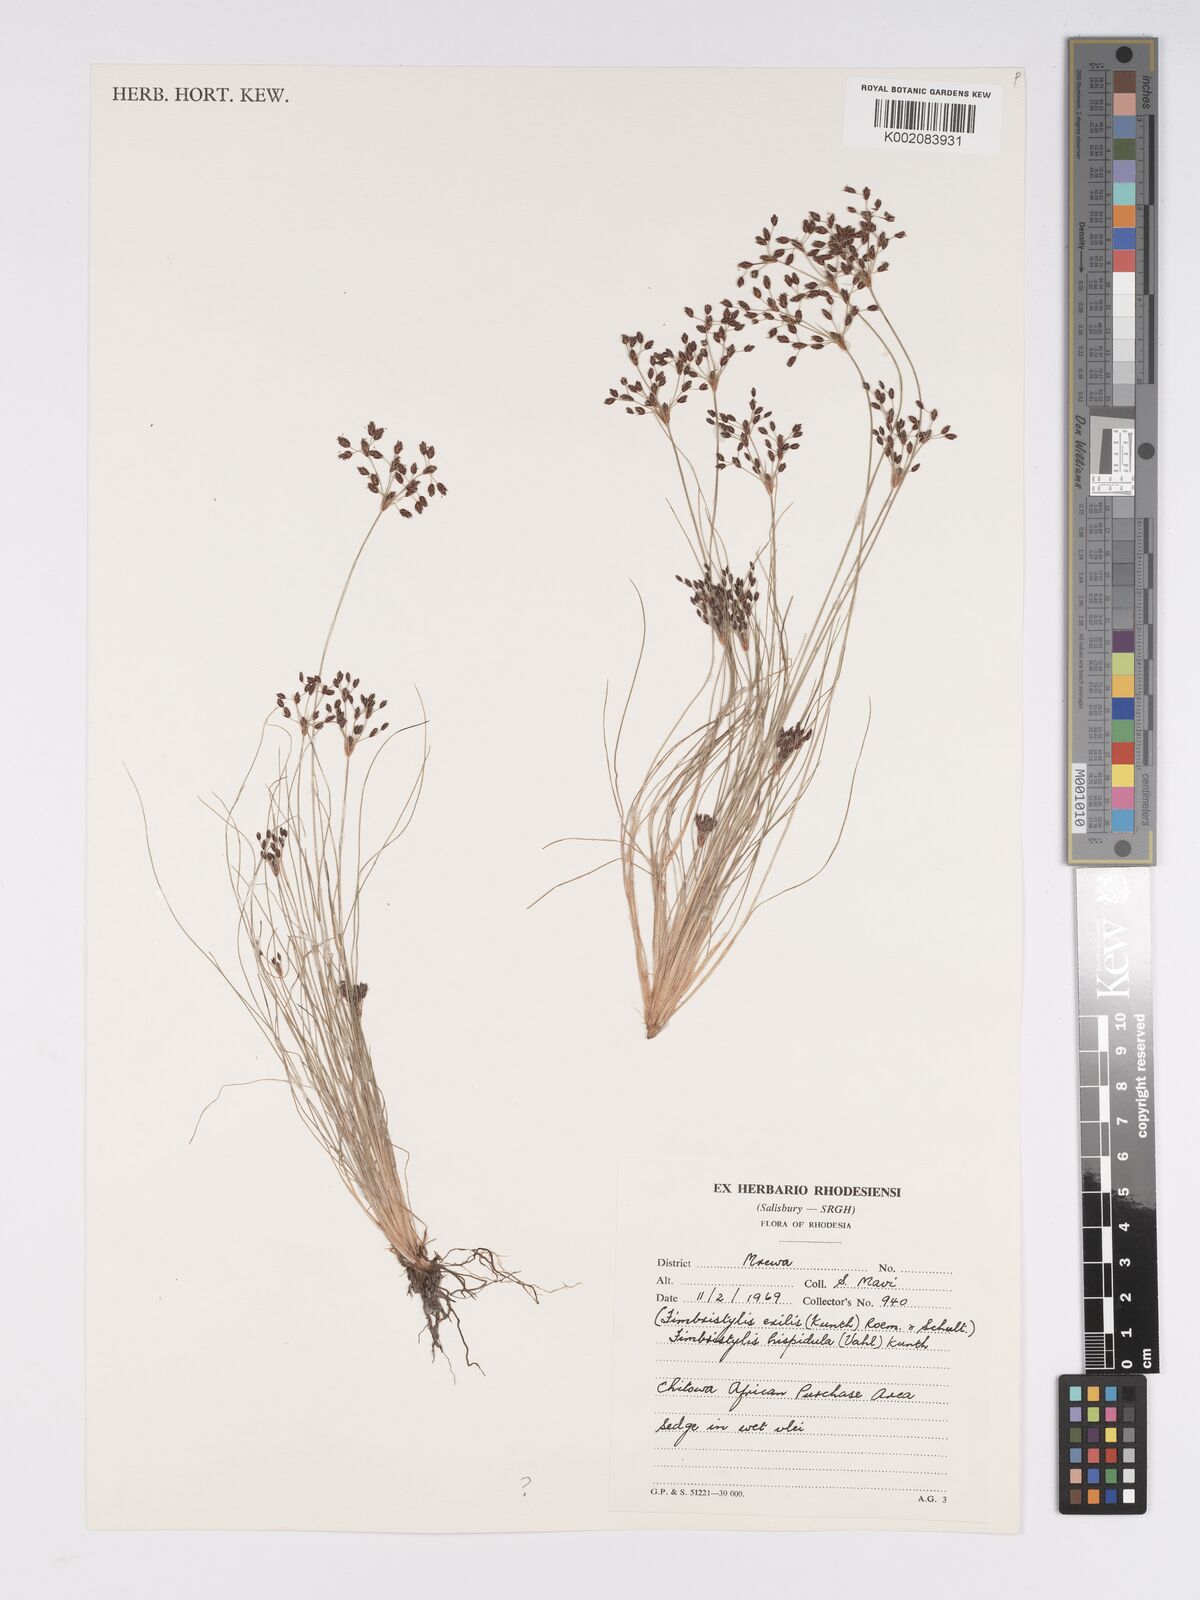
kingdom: Plantae
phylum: Tracheophyta
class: Liliopsida
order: Poales
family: Cyperaceae
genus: Bulbostylis
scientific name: Bulbostylis hispidula
